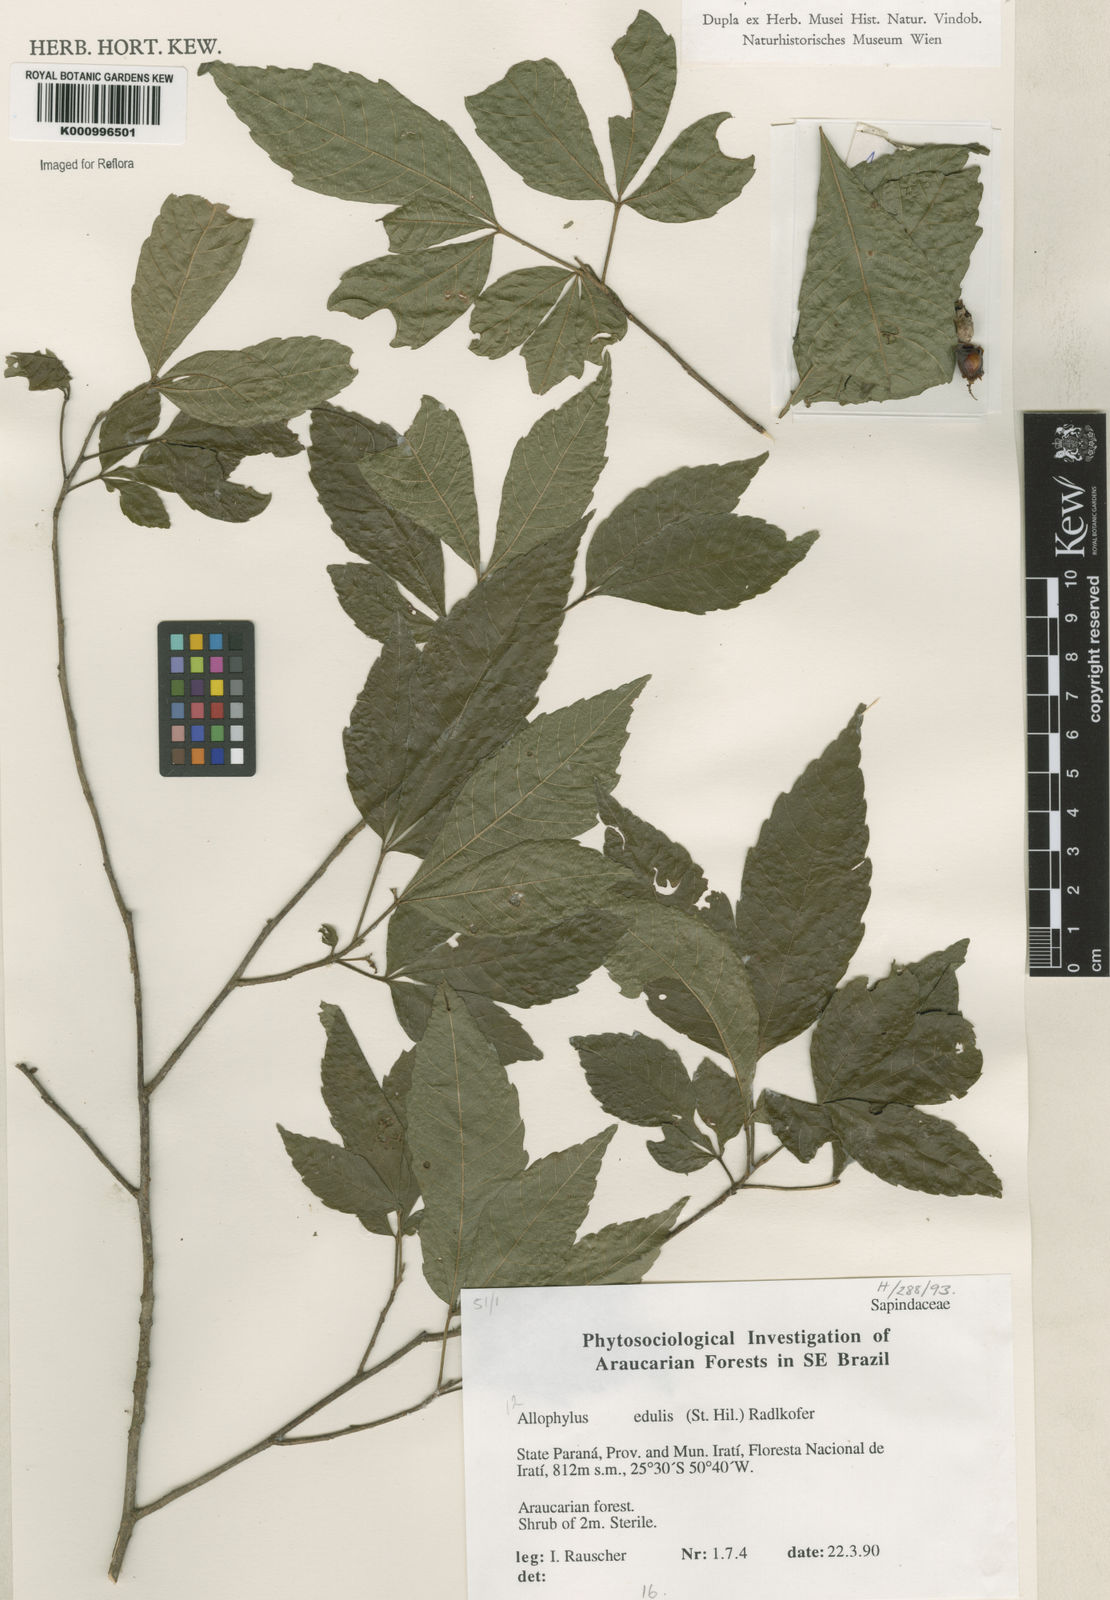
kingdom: Plantae
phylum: Tracheophyta
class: Magnoliopsida
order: Sapindales
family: Sapindaceae
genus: Allophylus
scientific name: Allophylus edulis
